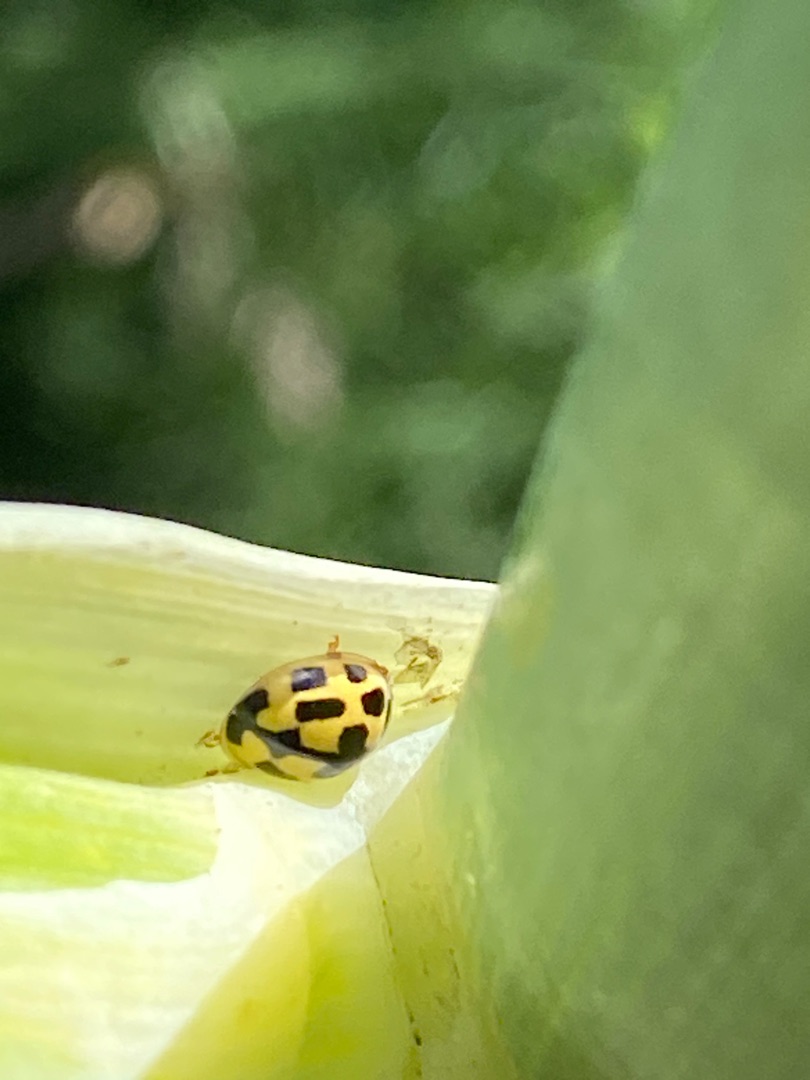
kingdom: Animalia
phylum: Arthropoda
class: Insecta
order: Coleoptera
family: Coccinellidae
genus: Propylaea
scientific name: Propylaea quatuordecimpunctata
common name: Skakbræt
